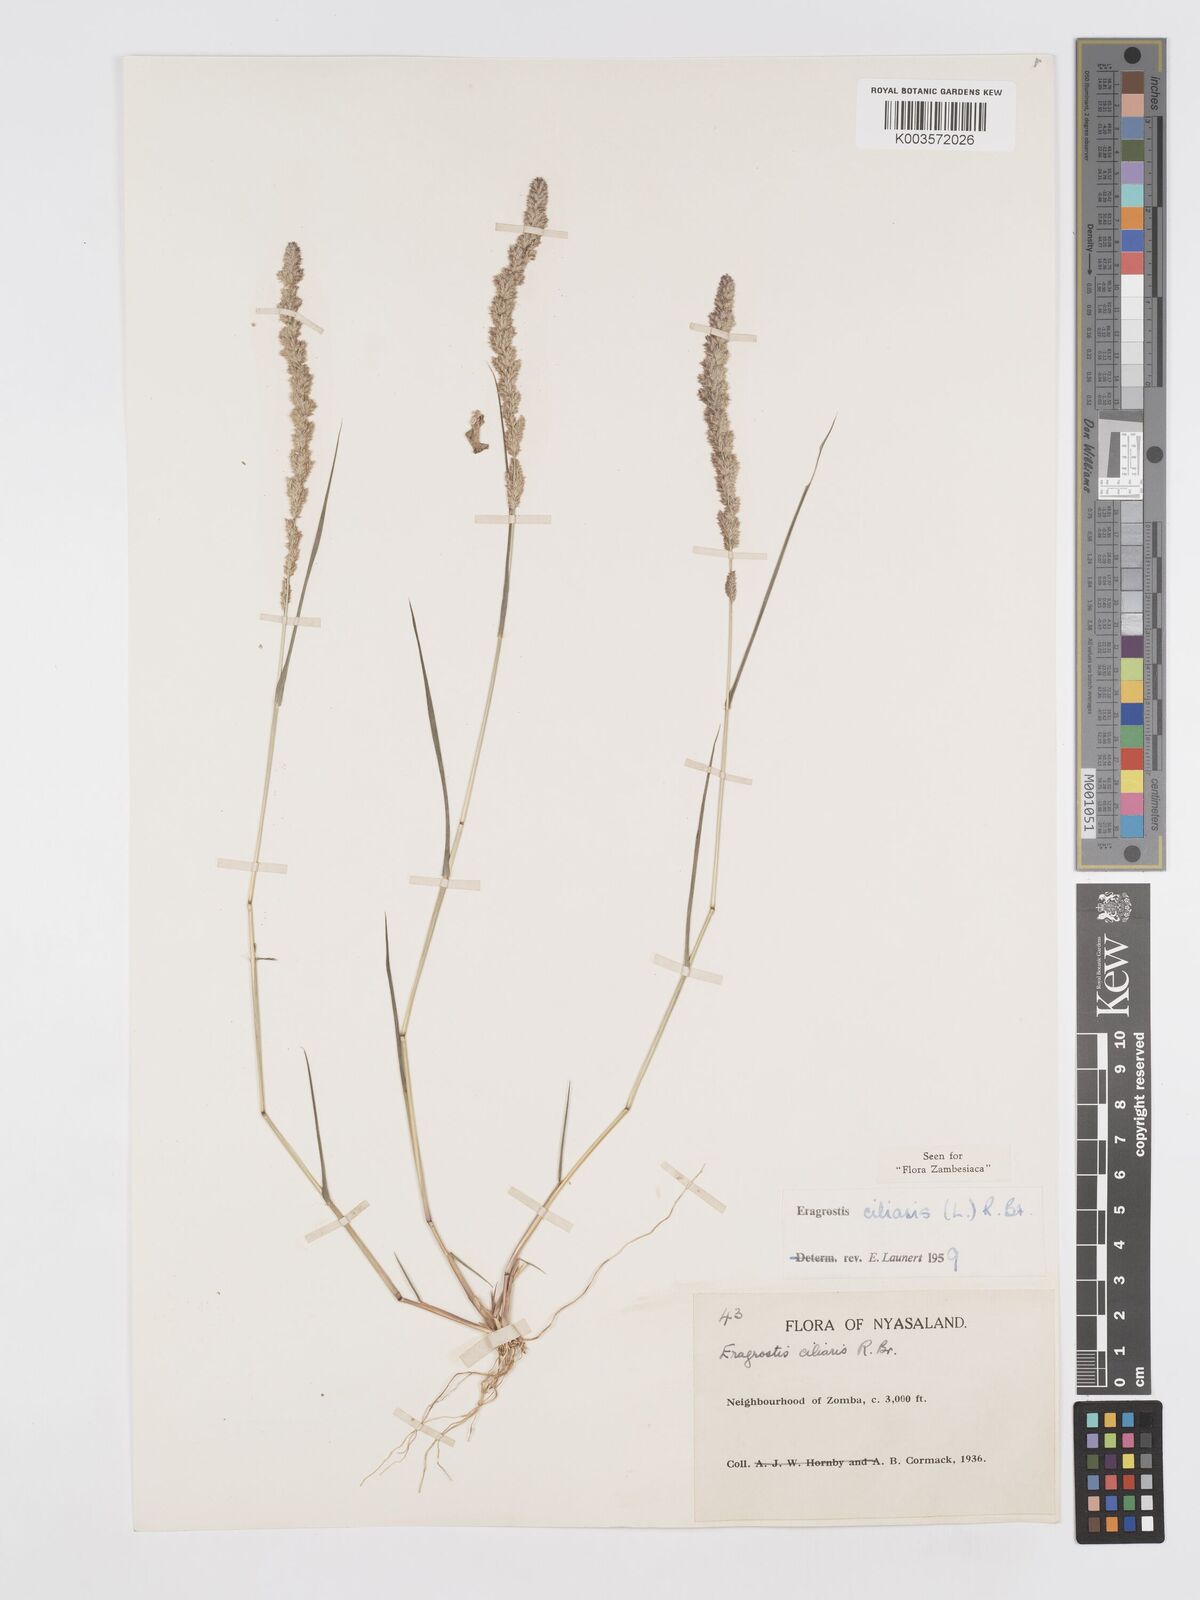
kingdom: Plantae
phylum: Tracheophyta
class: Liliopsida
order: Poales
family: Poaceae
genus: Eragrostis
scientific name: Eragrostis ciliaris
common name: Gophertail lovegrass
